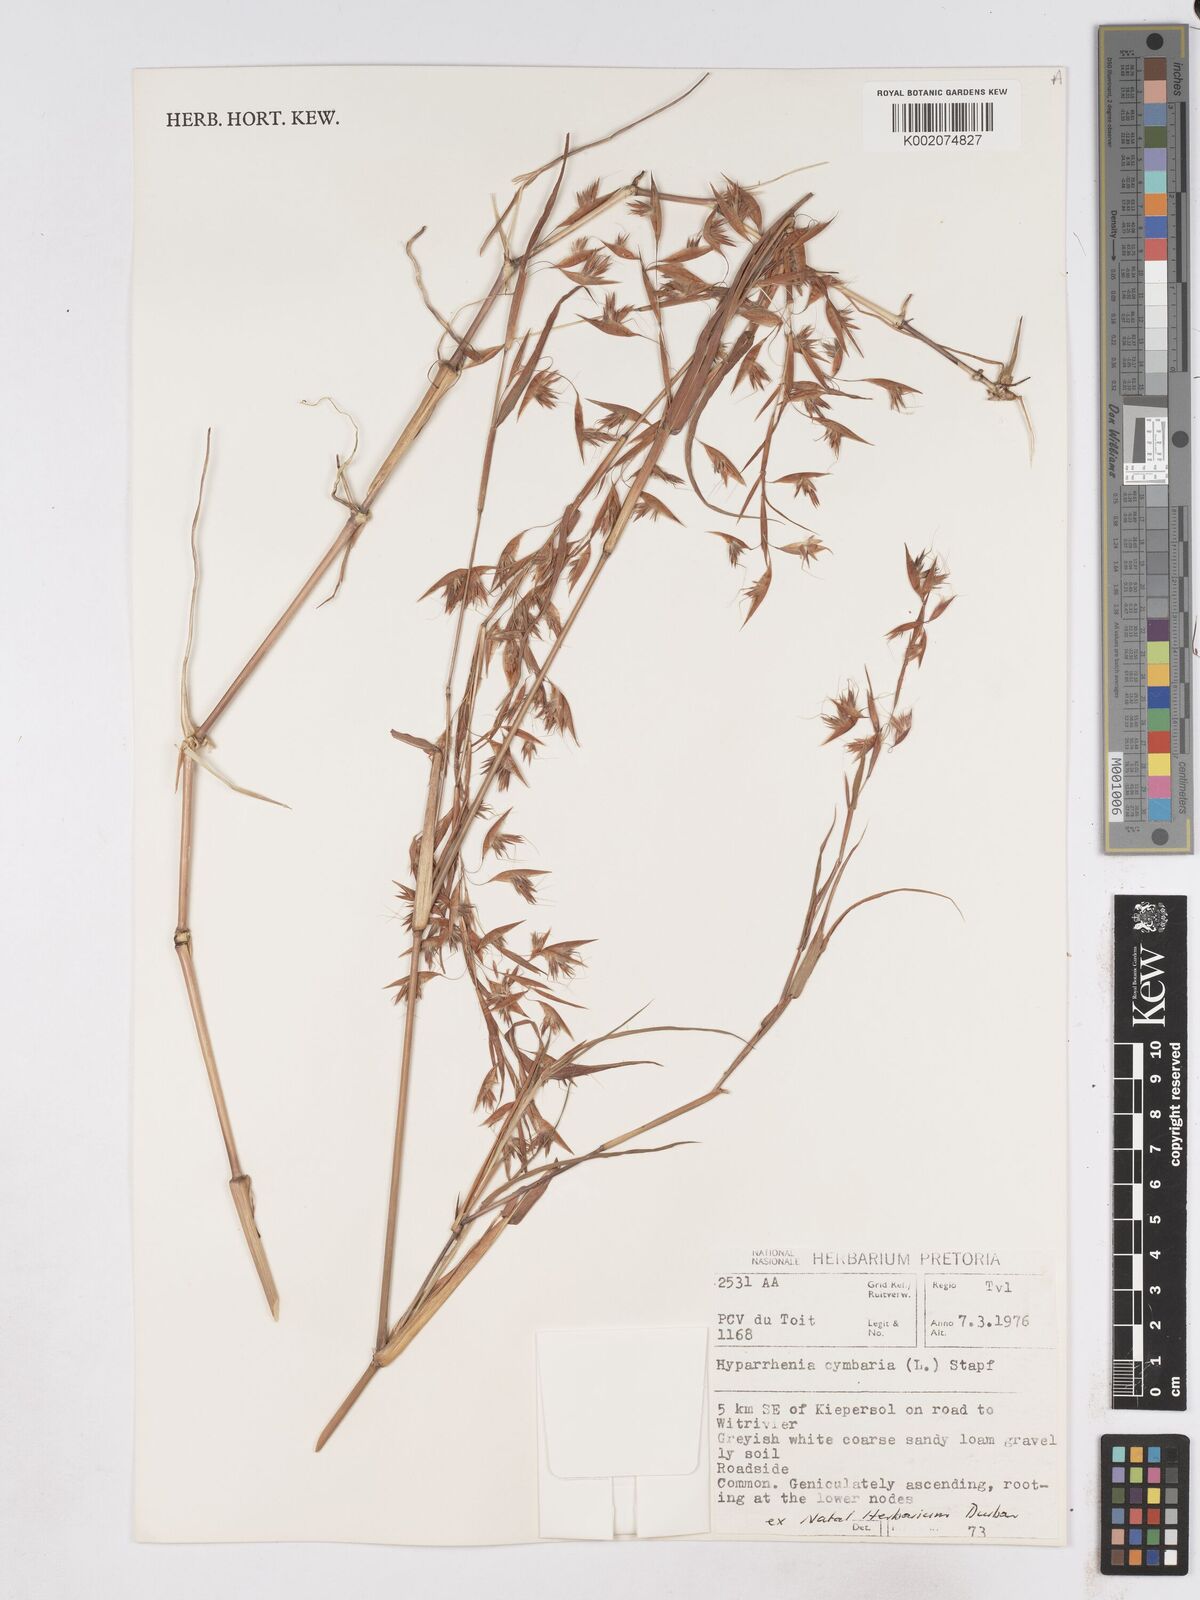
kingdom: Plantae
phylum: Tracheophyta
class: Liliopsida
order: Poales
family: Poaceae
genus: Hyparrhenia
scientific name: Hyparrhenia cymbaria
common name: Boat thatching grass
